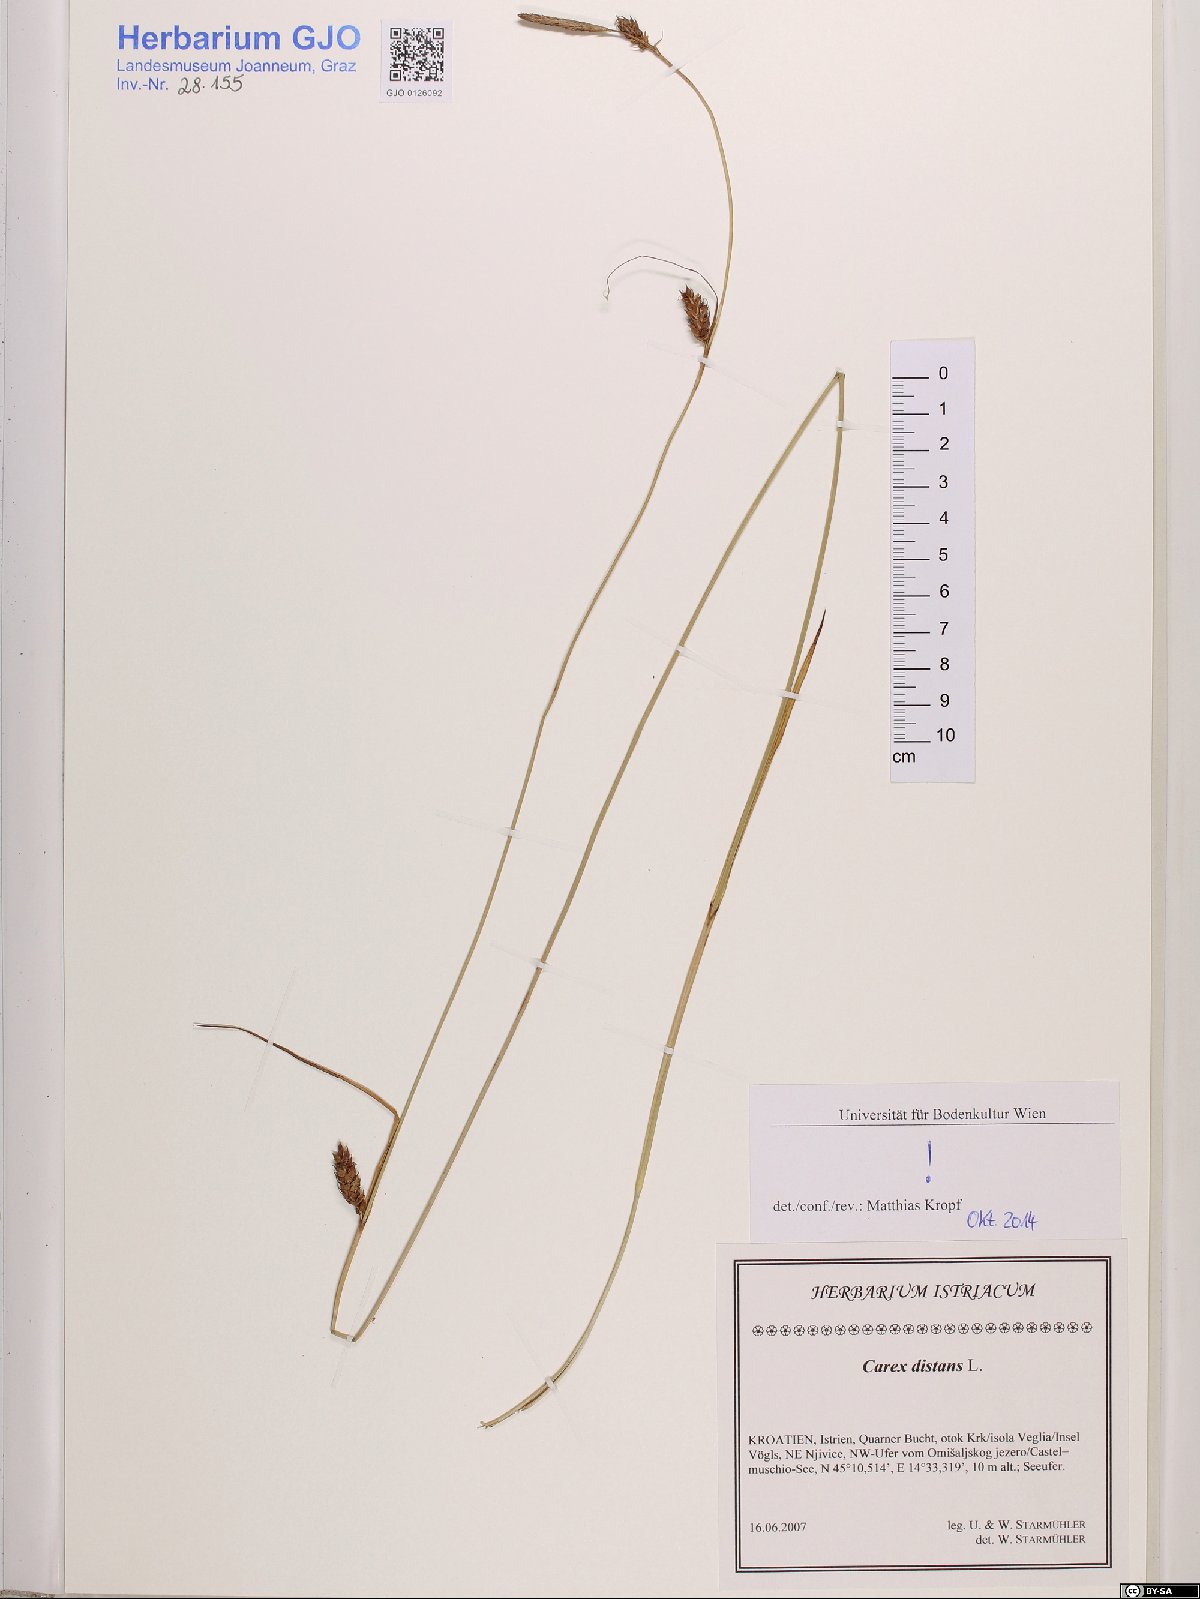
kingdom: Plantae
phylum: Tracheophyta
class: Liliopsida
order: Poales
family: Cyperaceae
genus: Carex
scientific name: Carex distans
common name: Distant sedge
